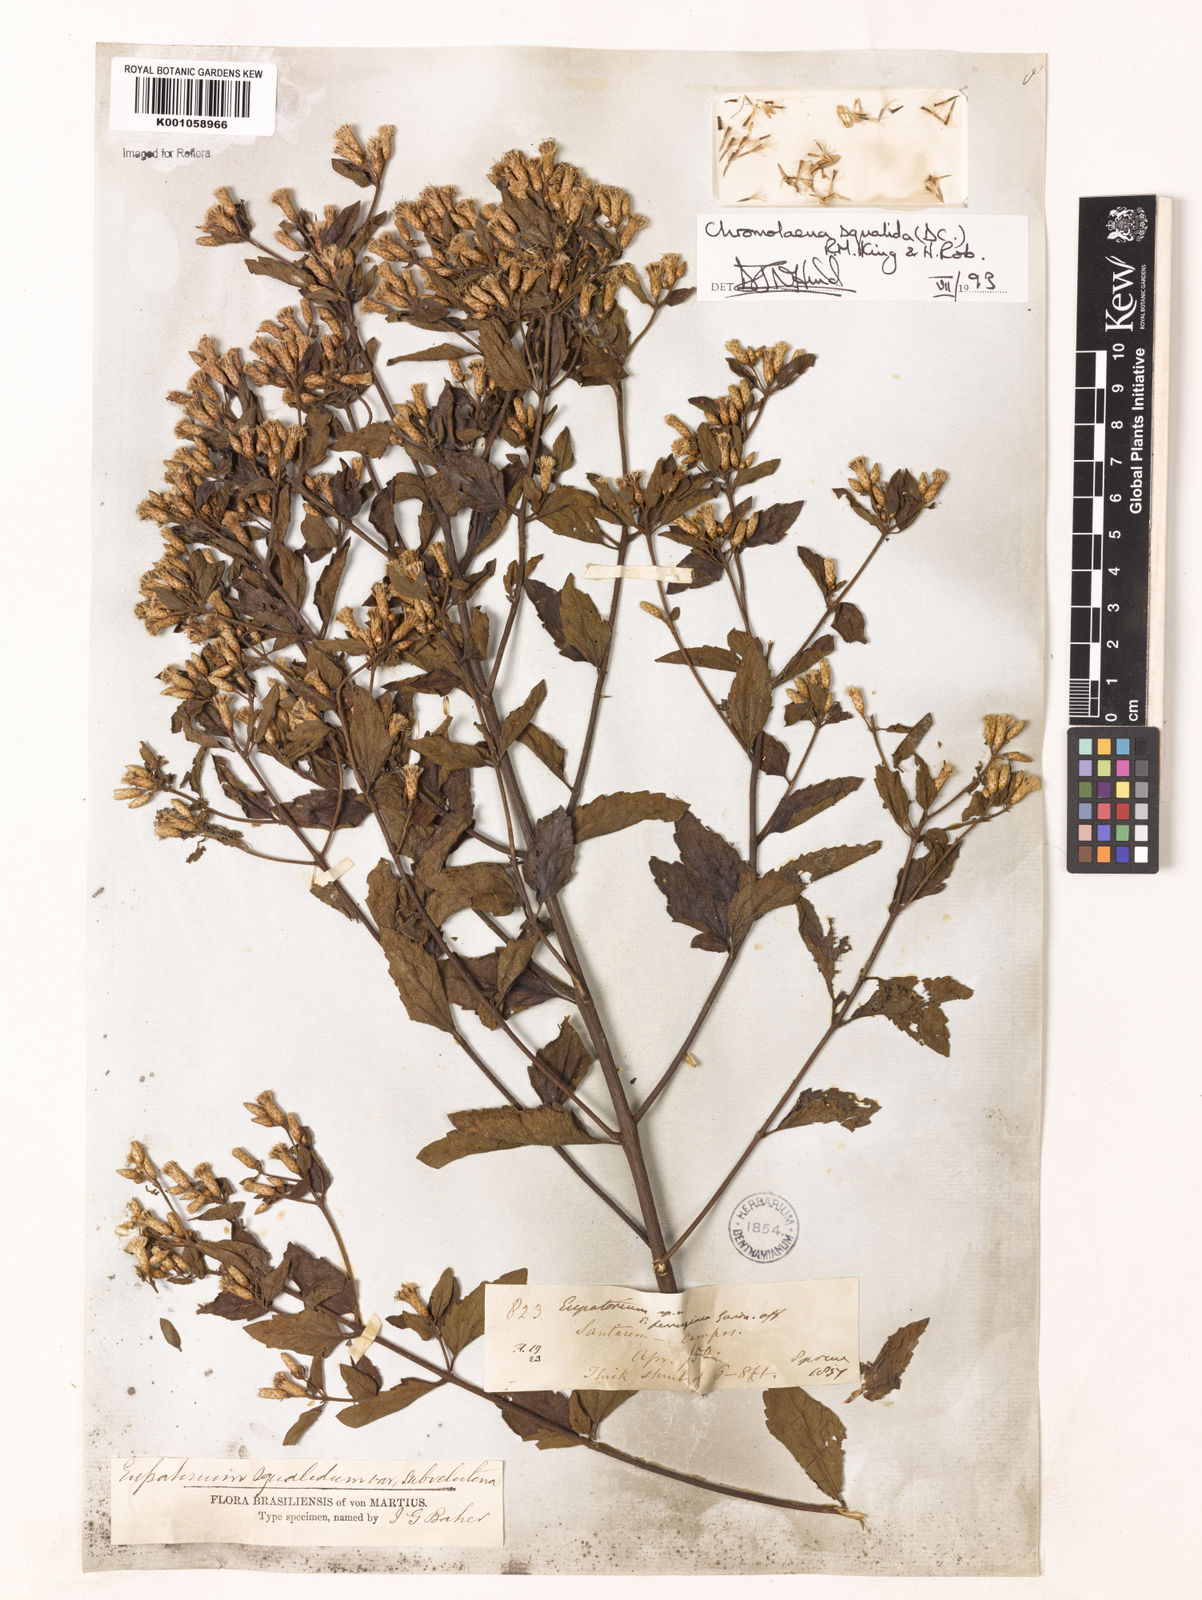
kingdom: Plantae
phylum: Tracheophyta
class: Magnoliopsida
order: Asterales
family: Asteraceae
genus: Chromolaena
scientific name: Chromolaena squalida
